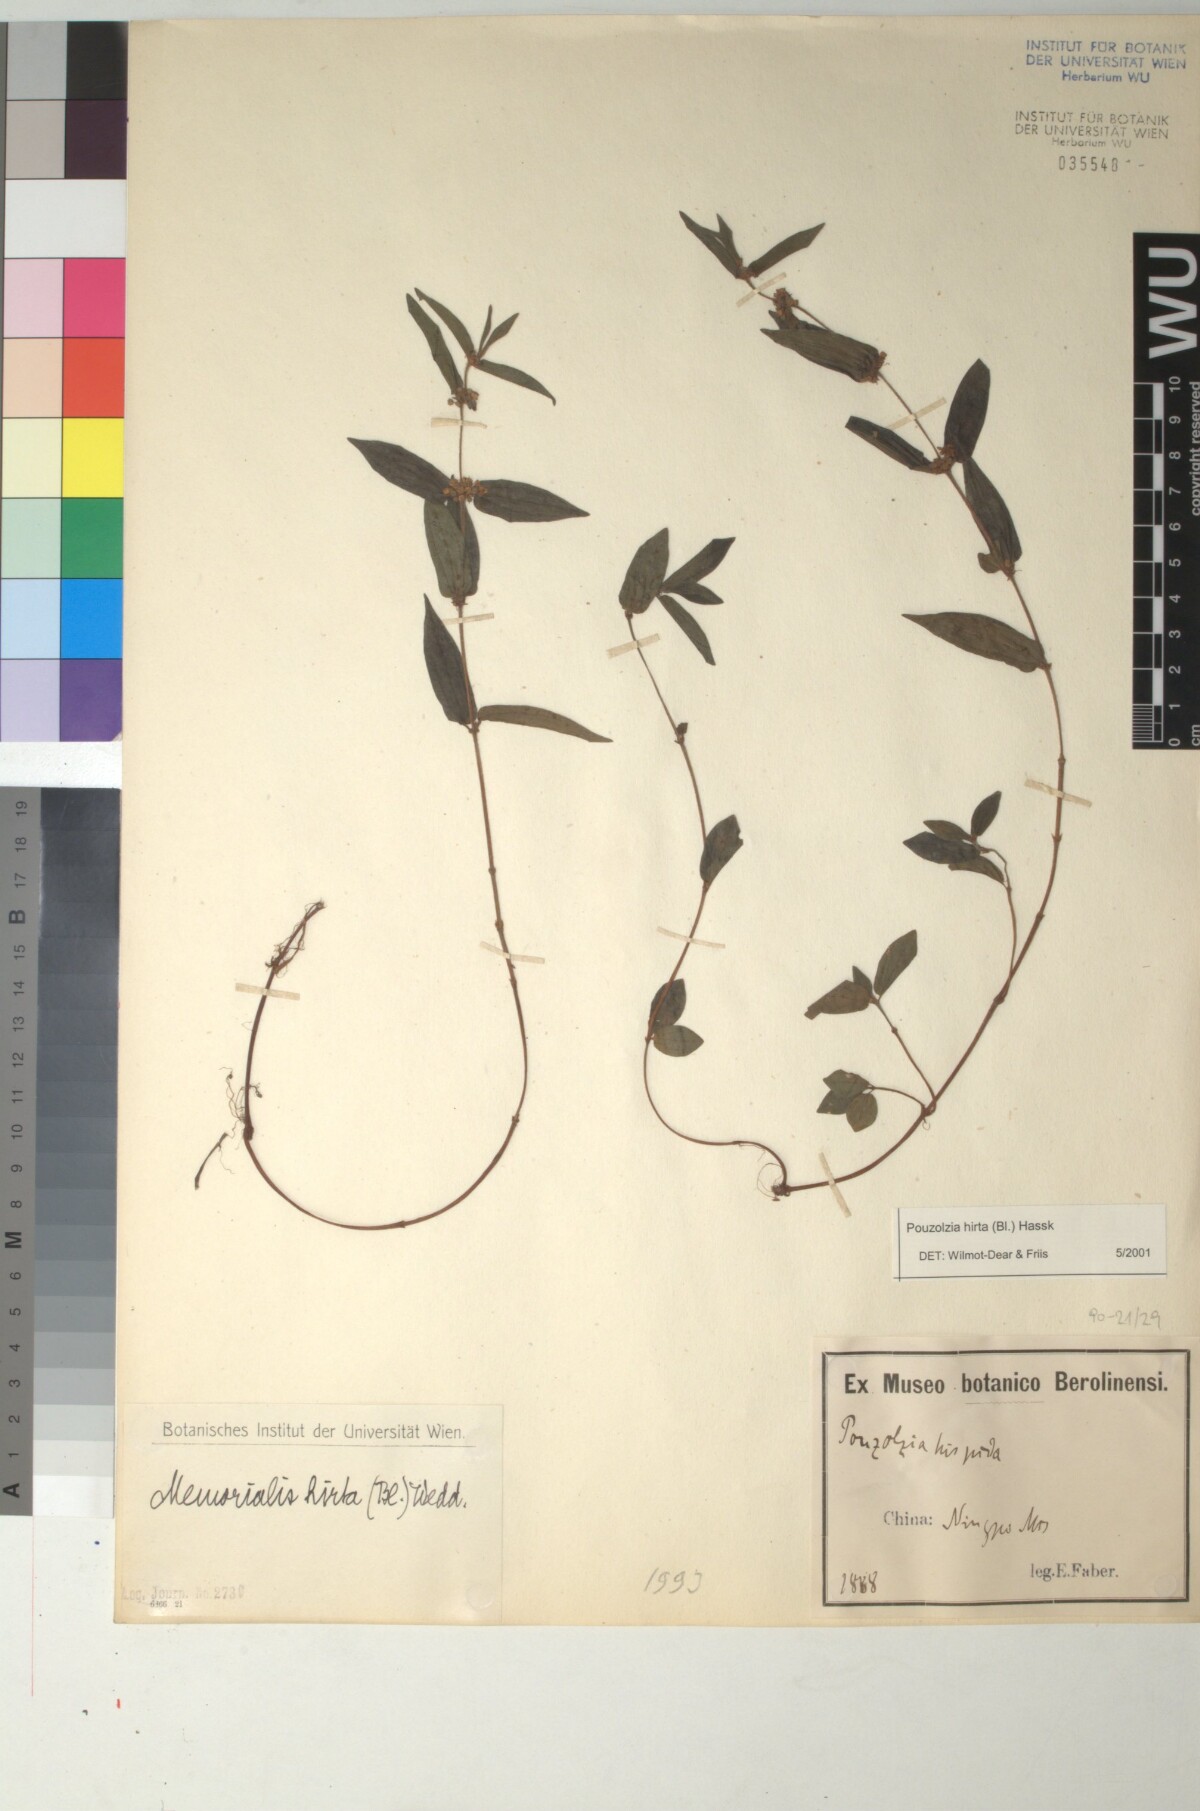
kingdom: Plantae
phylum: Tracheophyta
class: Magnoliopsida
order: Rosales
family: Urticaceae
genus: Gonostegia
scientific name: Gonostegia triandra
